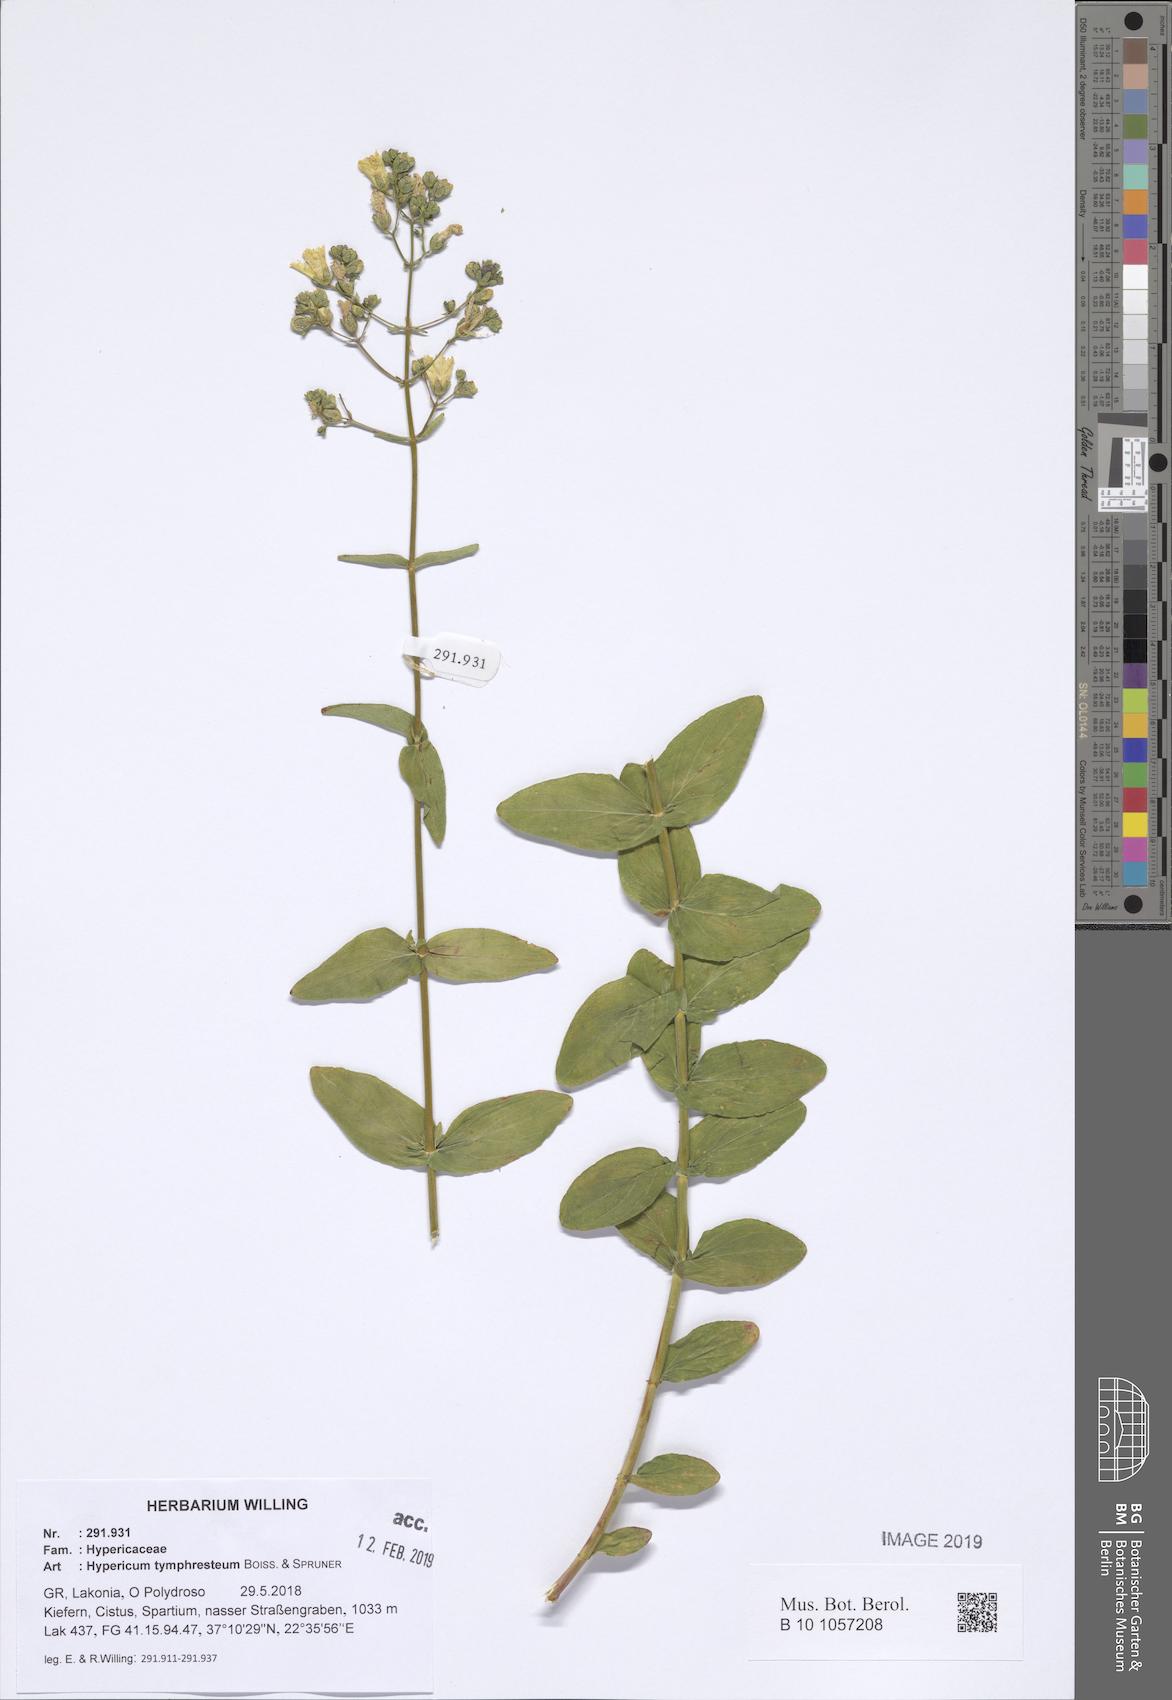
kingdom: Plantae
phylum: Tracheophyta
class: Magnoliopsida
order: Malpighiales
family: Hypericaceae
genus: Hypericum
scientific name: Hypericum atomarium
